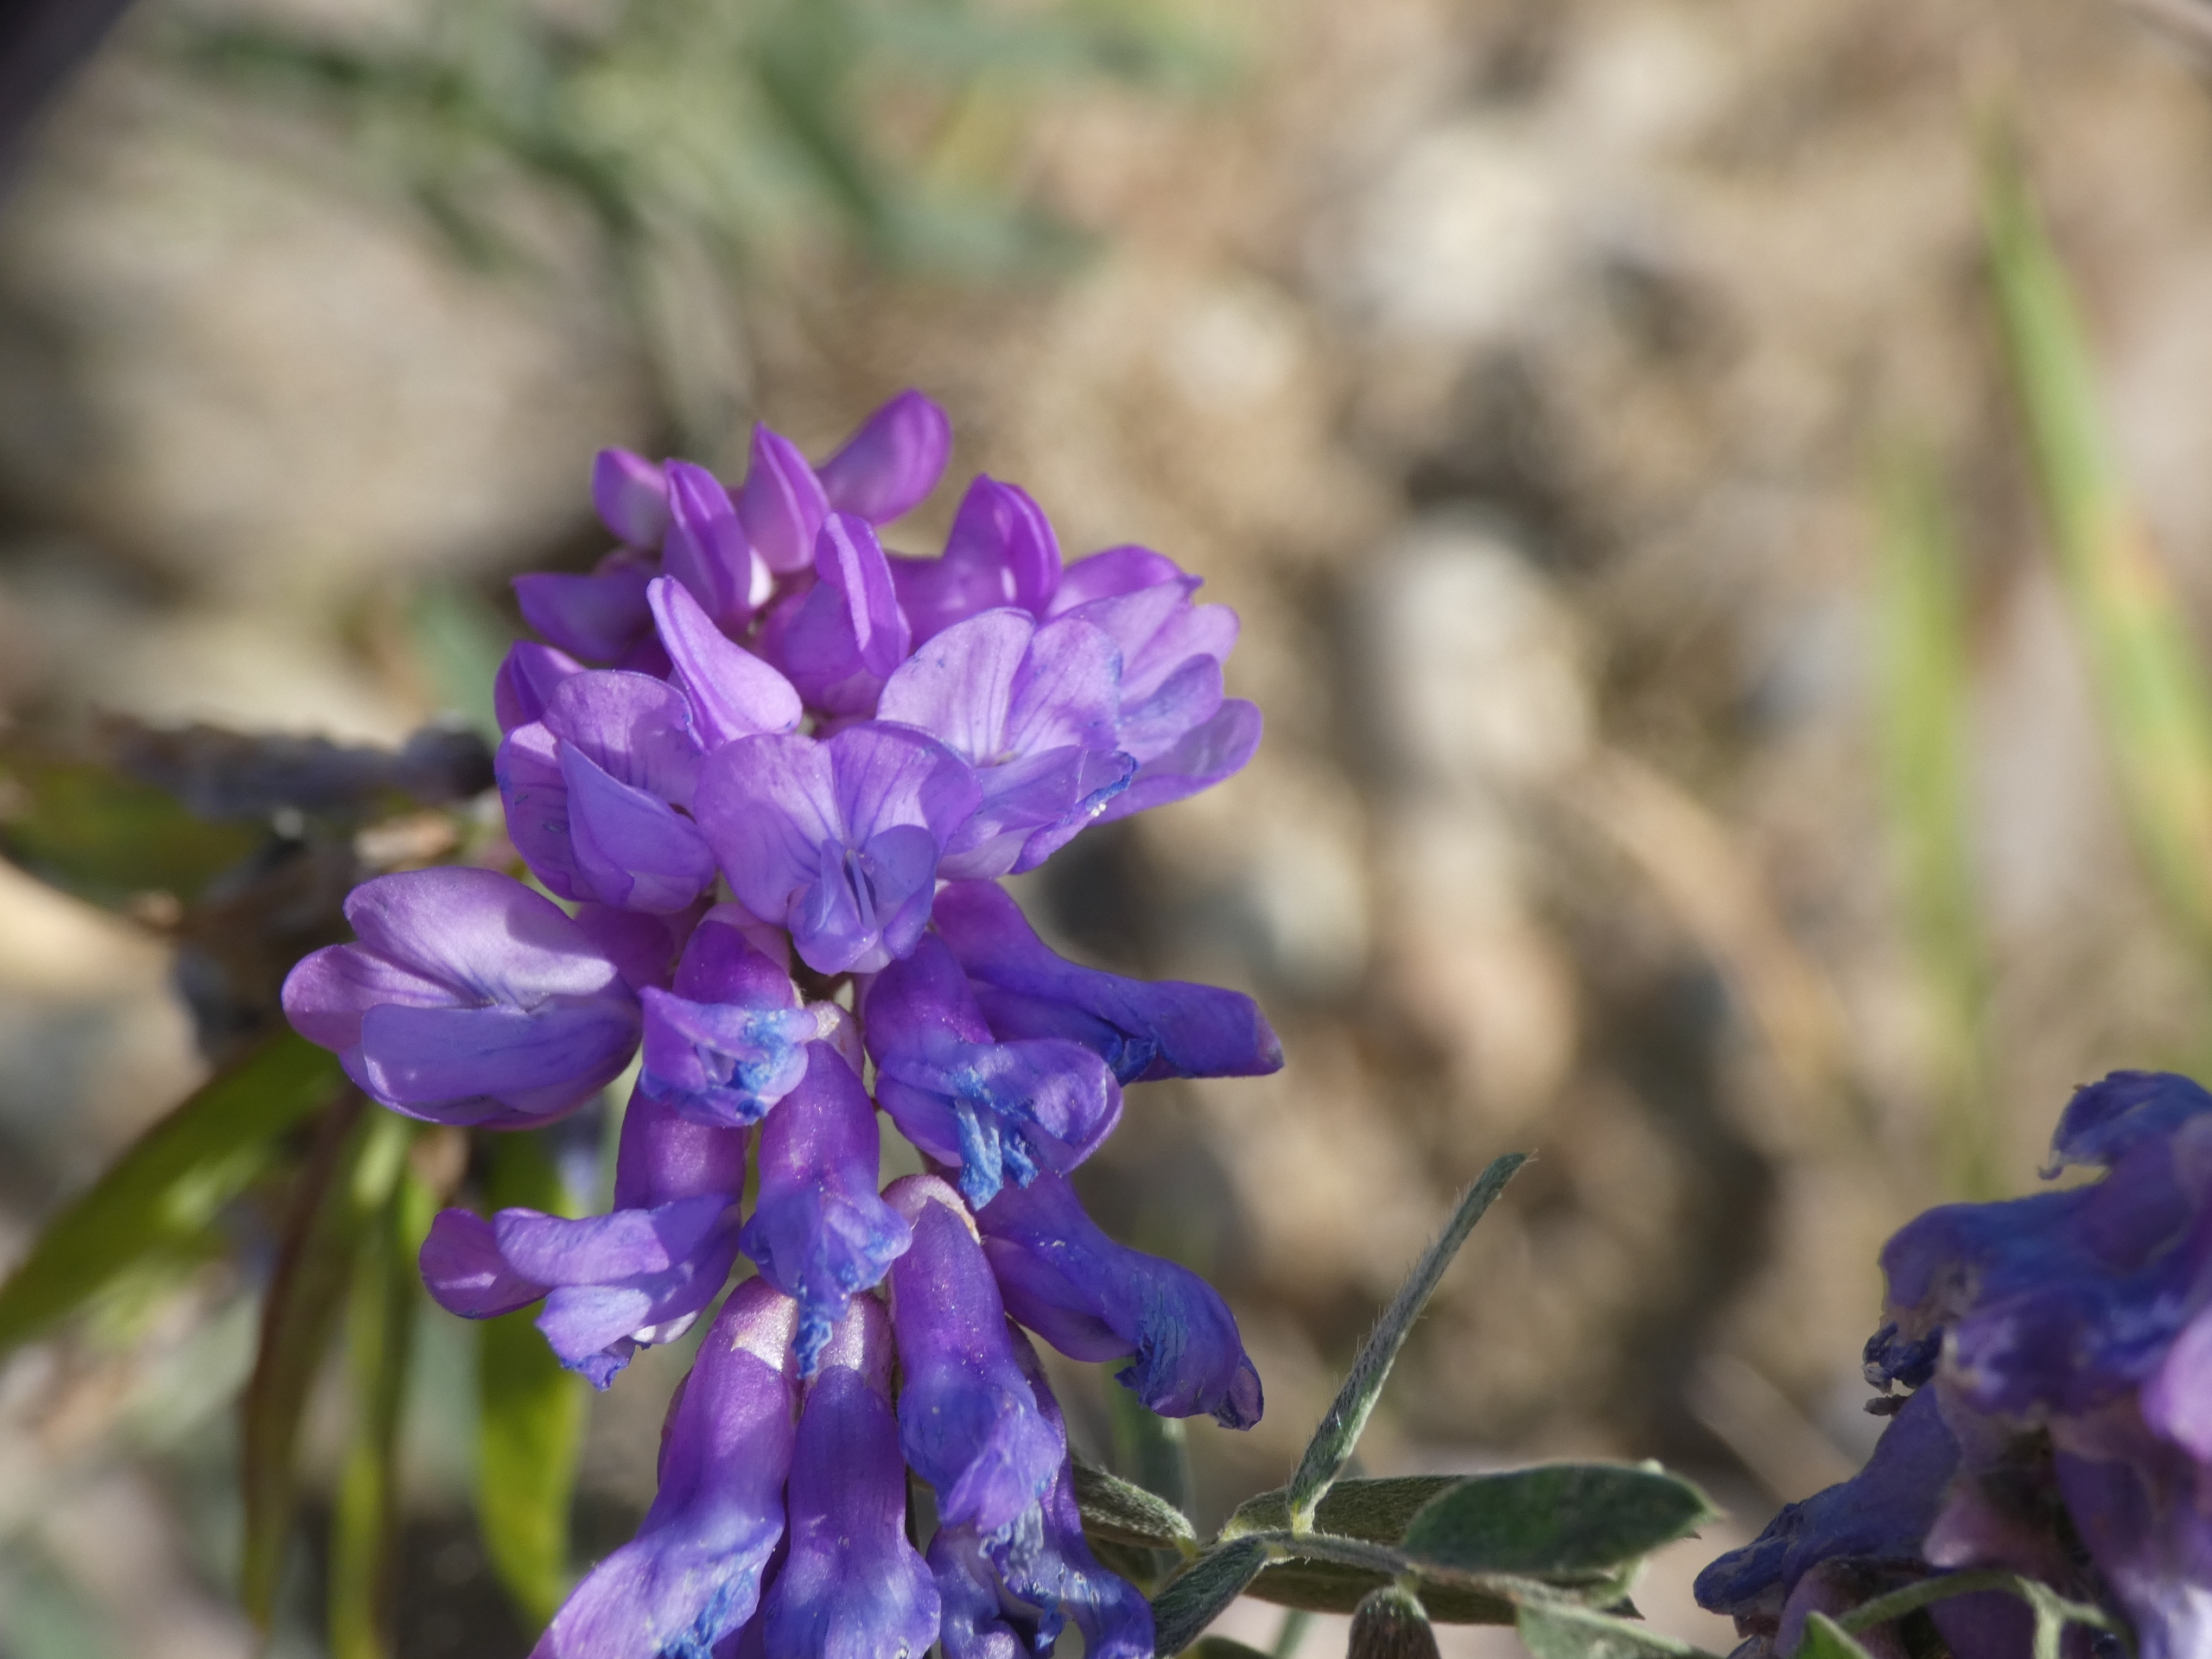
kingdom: Plantae
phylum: Tracheophyta
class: Magnoliopsida
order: Fabales
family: Fabaceae
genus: Vicia
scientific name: Vicia cracca
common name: Muse-vikke
